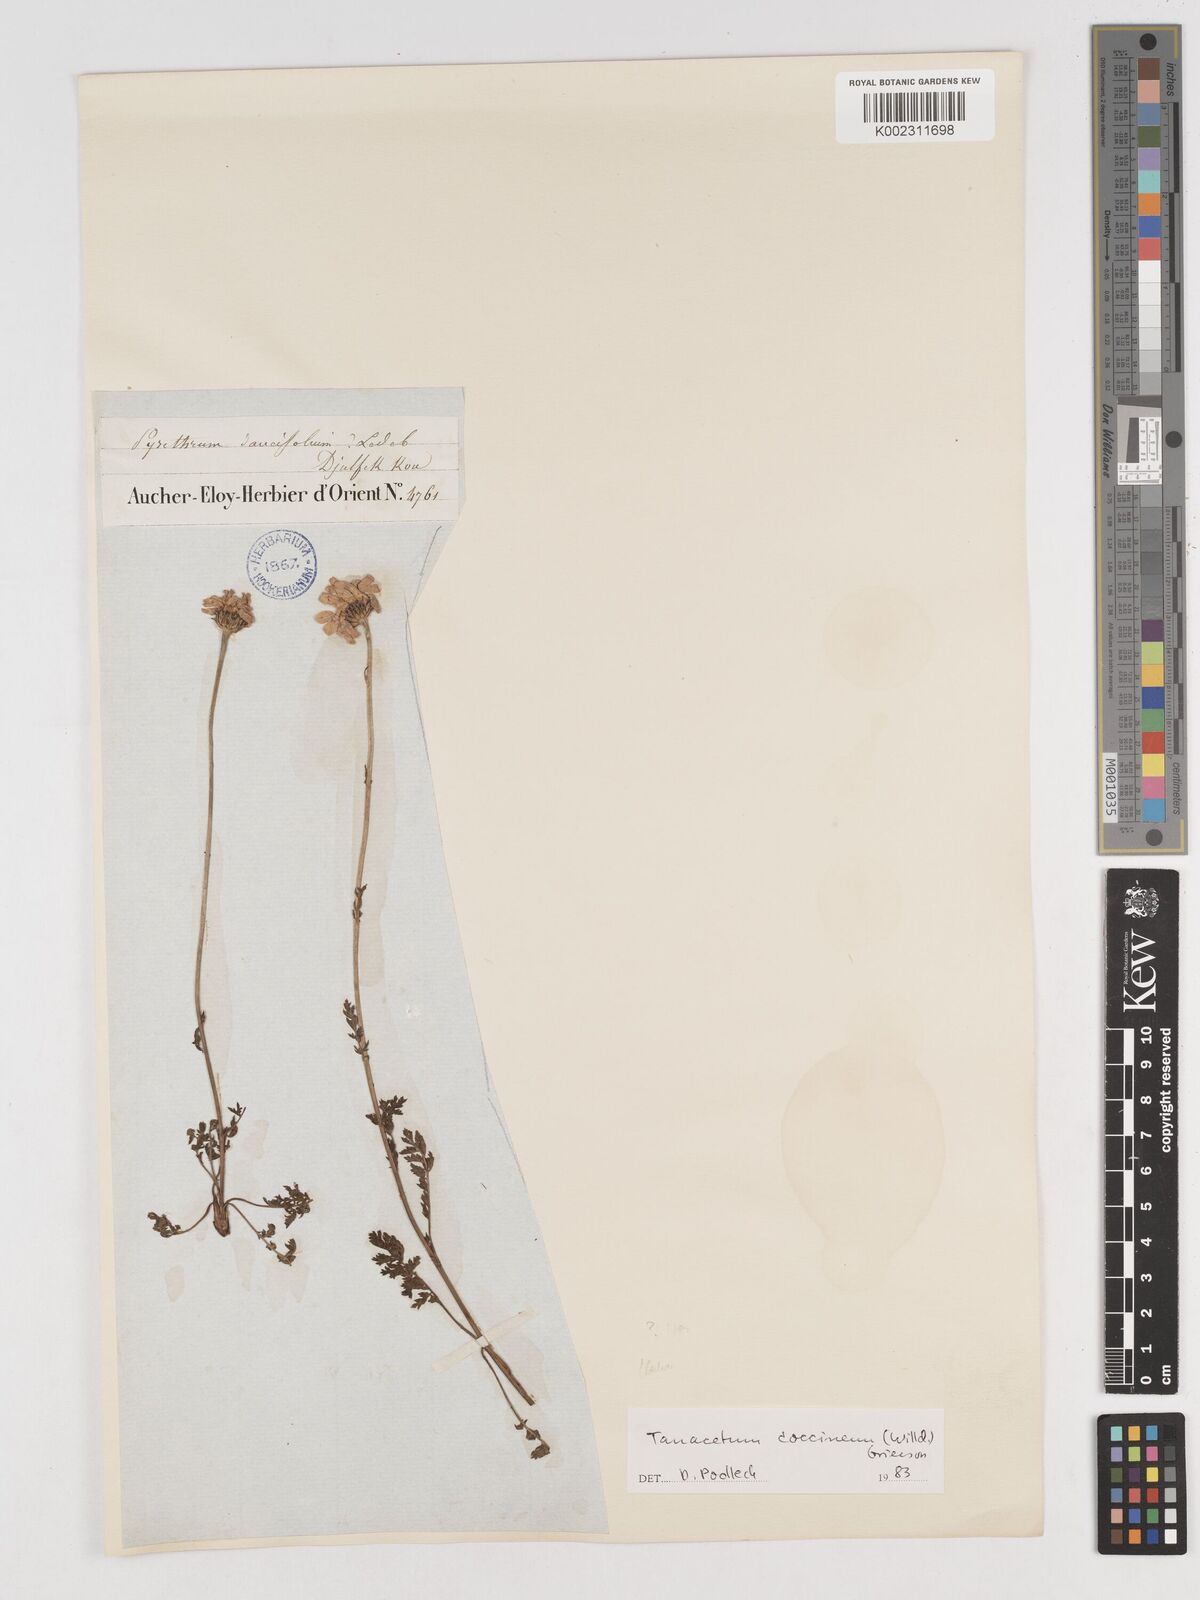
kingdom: Plantae
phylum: Tracheophyta
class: Magnoliopsida
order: Asterales
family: Asteraceae
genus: Tanacetum
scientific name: Tanacetum coccineum
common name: Pyrethum daisy
